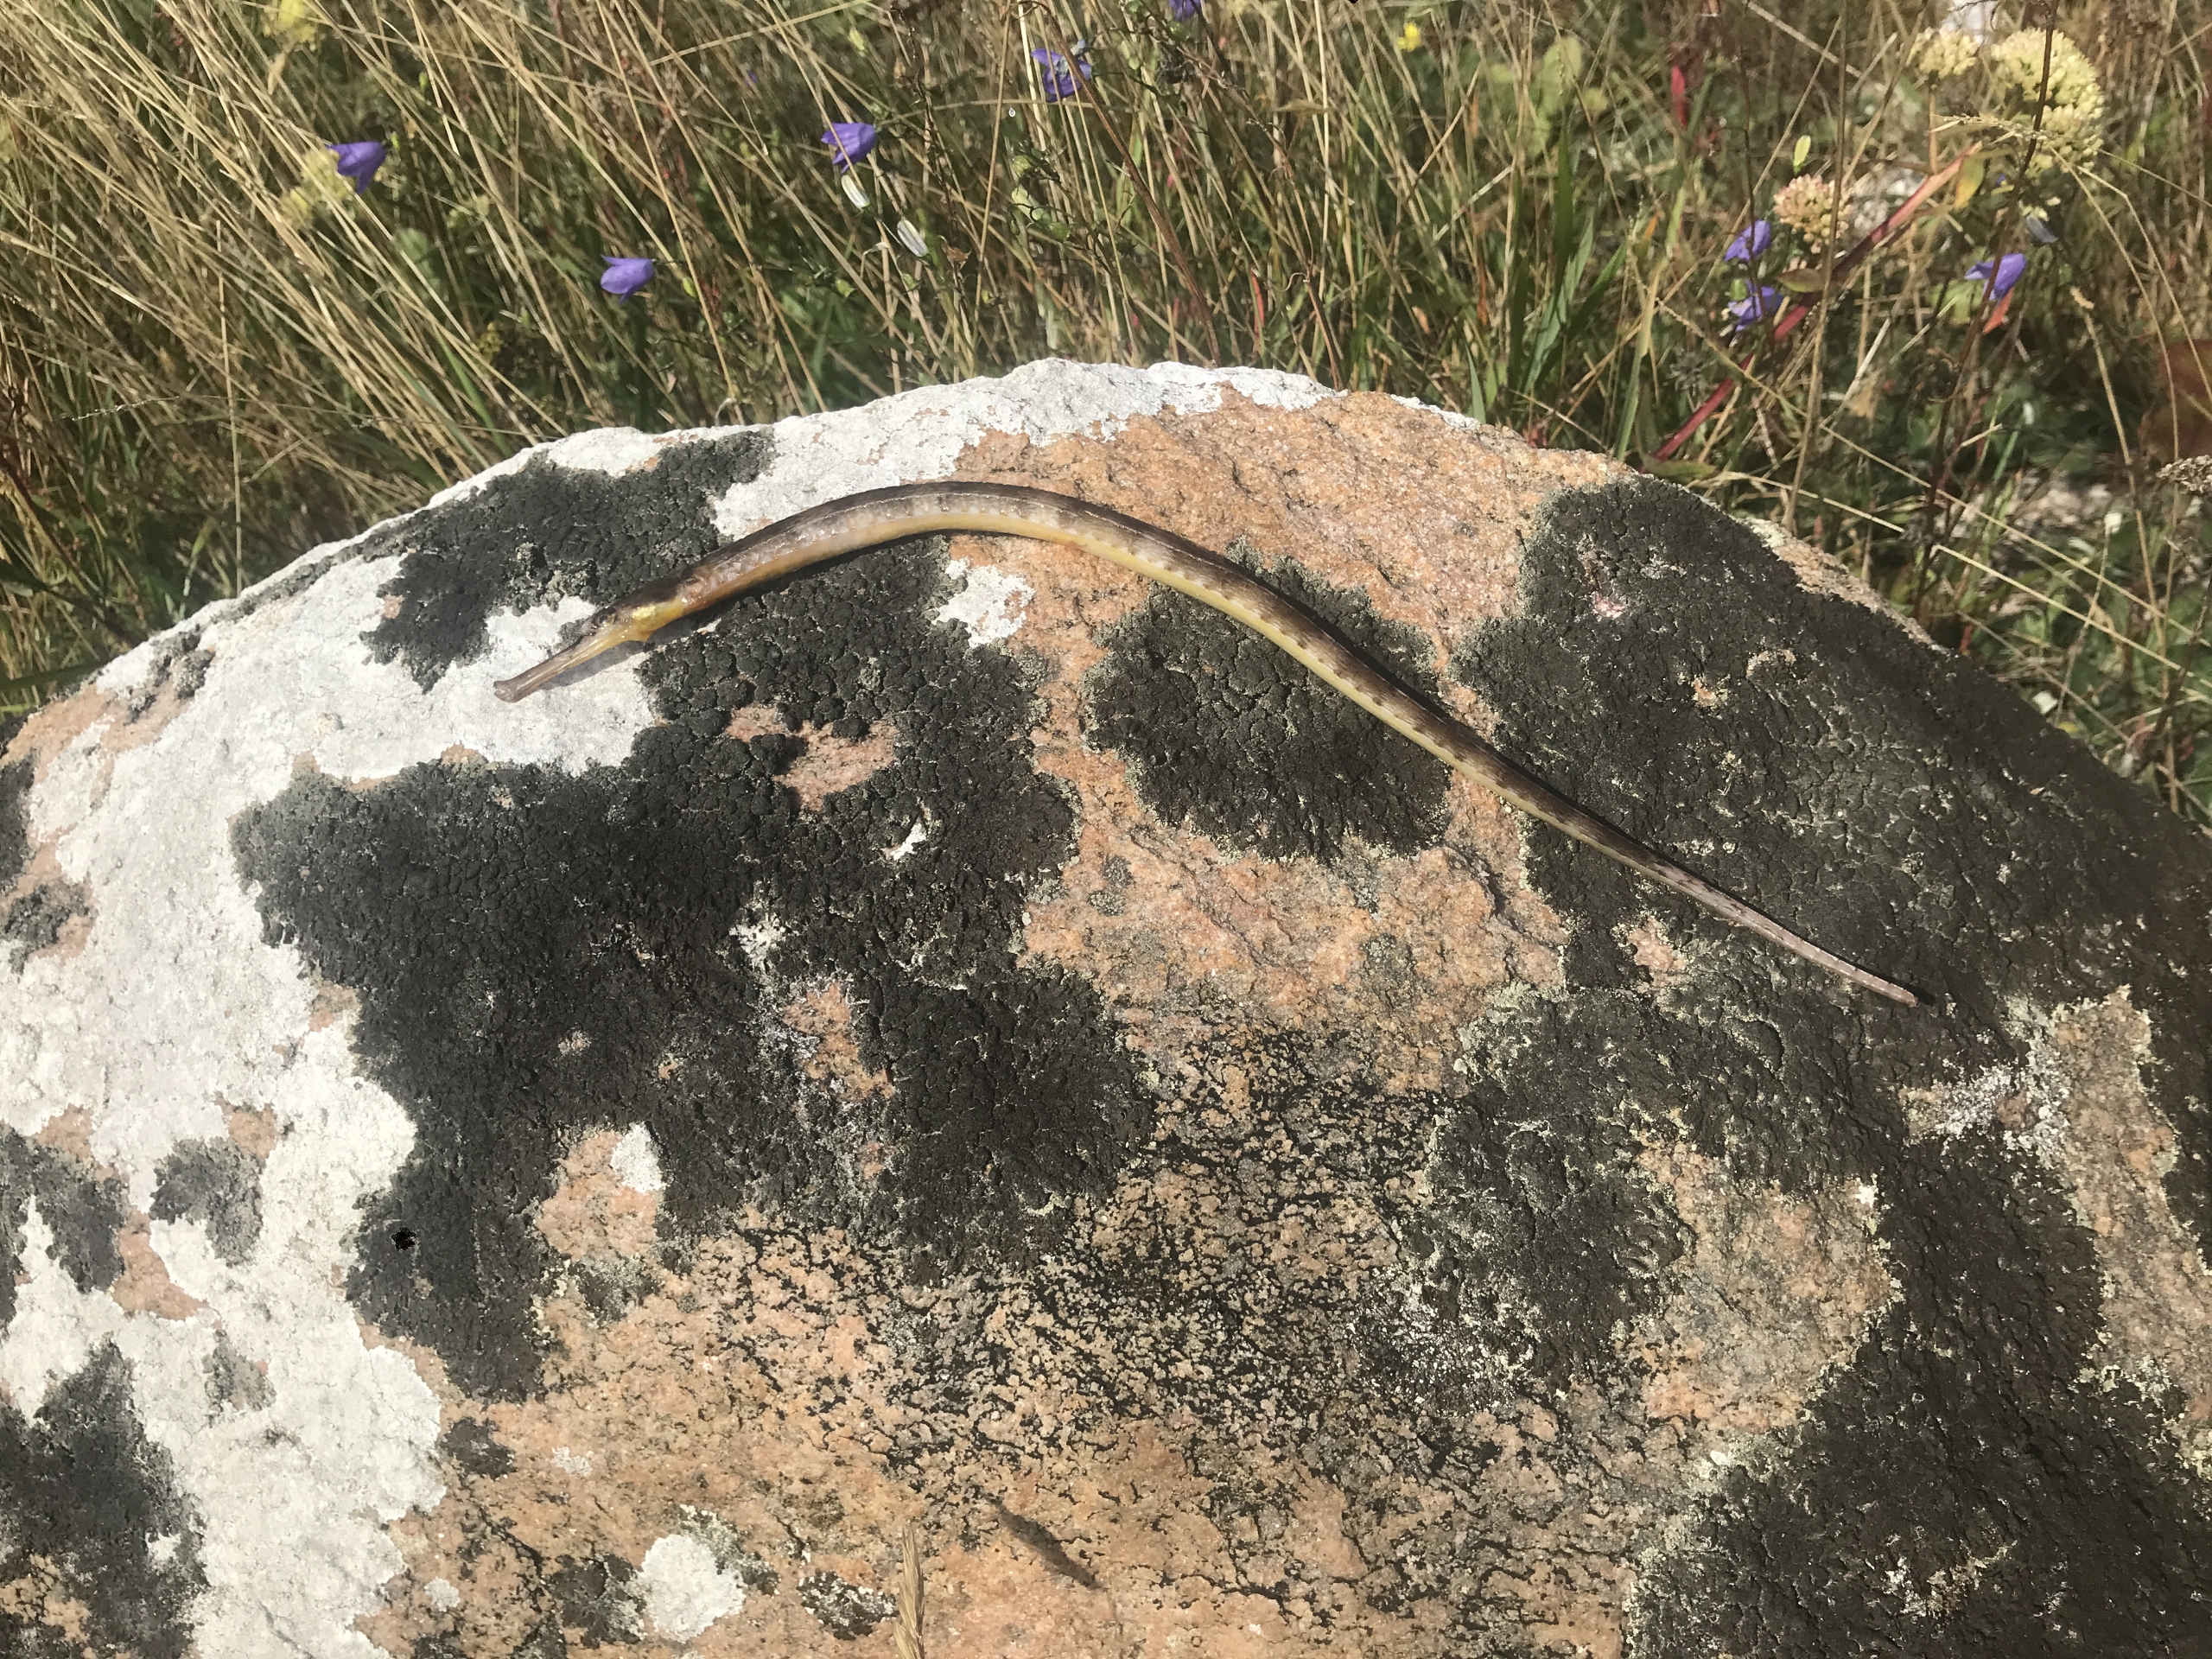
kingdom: Animalia
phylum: Chordata
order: Syngnathiformes
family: Syngnathidae
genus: Syngnathus
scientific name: Syngnathus acus
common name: Stor tangnål
